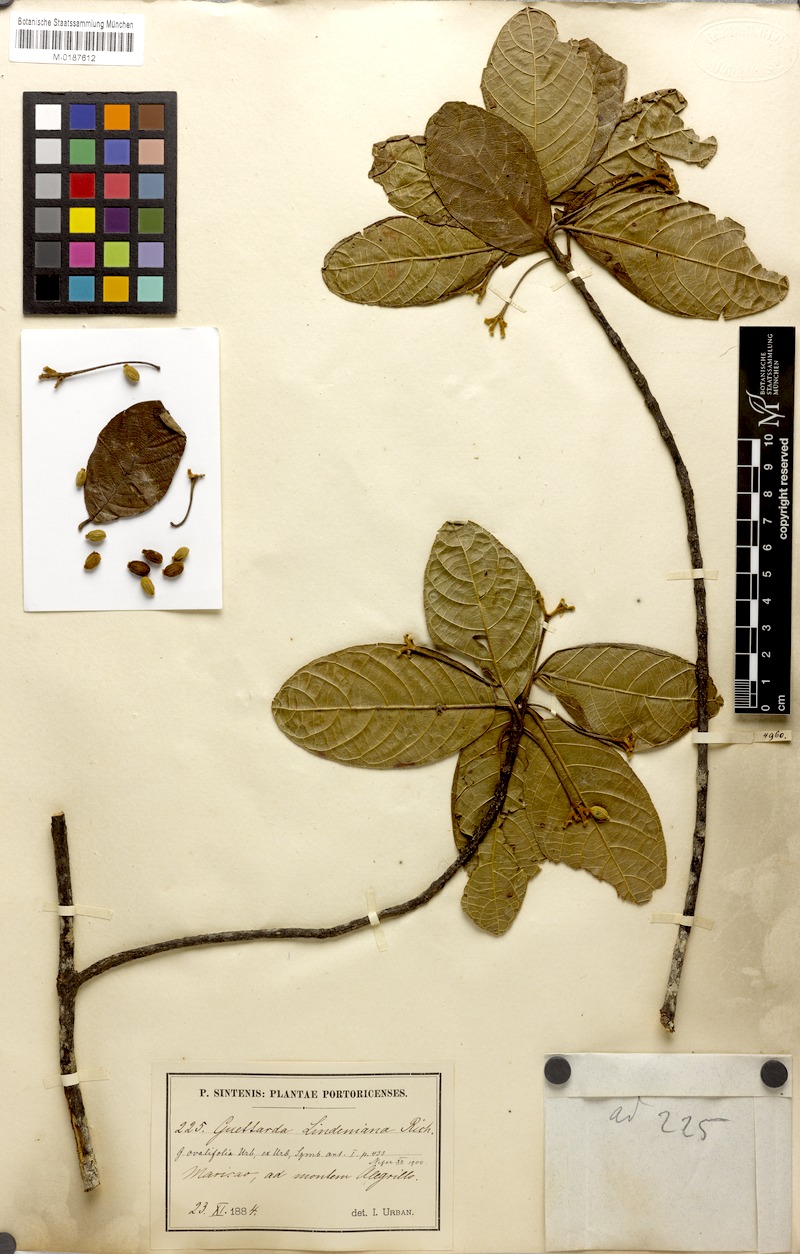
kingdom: Plantae
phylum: Tracheophyta
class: Magnoliopsida
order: Gentianales
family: Rubiaceae
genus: Guettarda
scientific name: Guettarda ovalifolia
